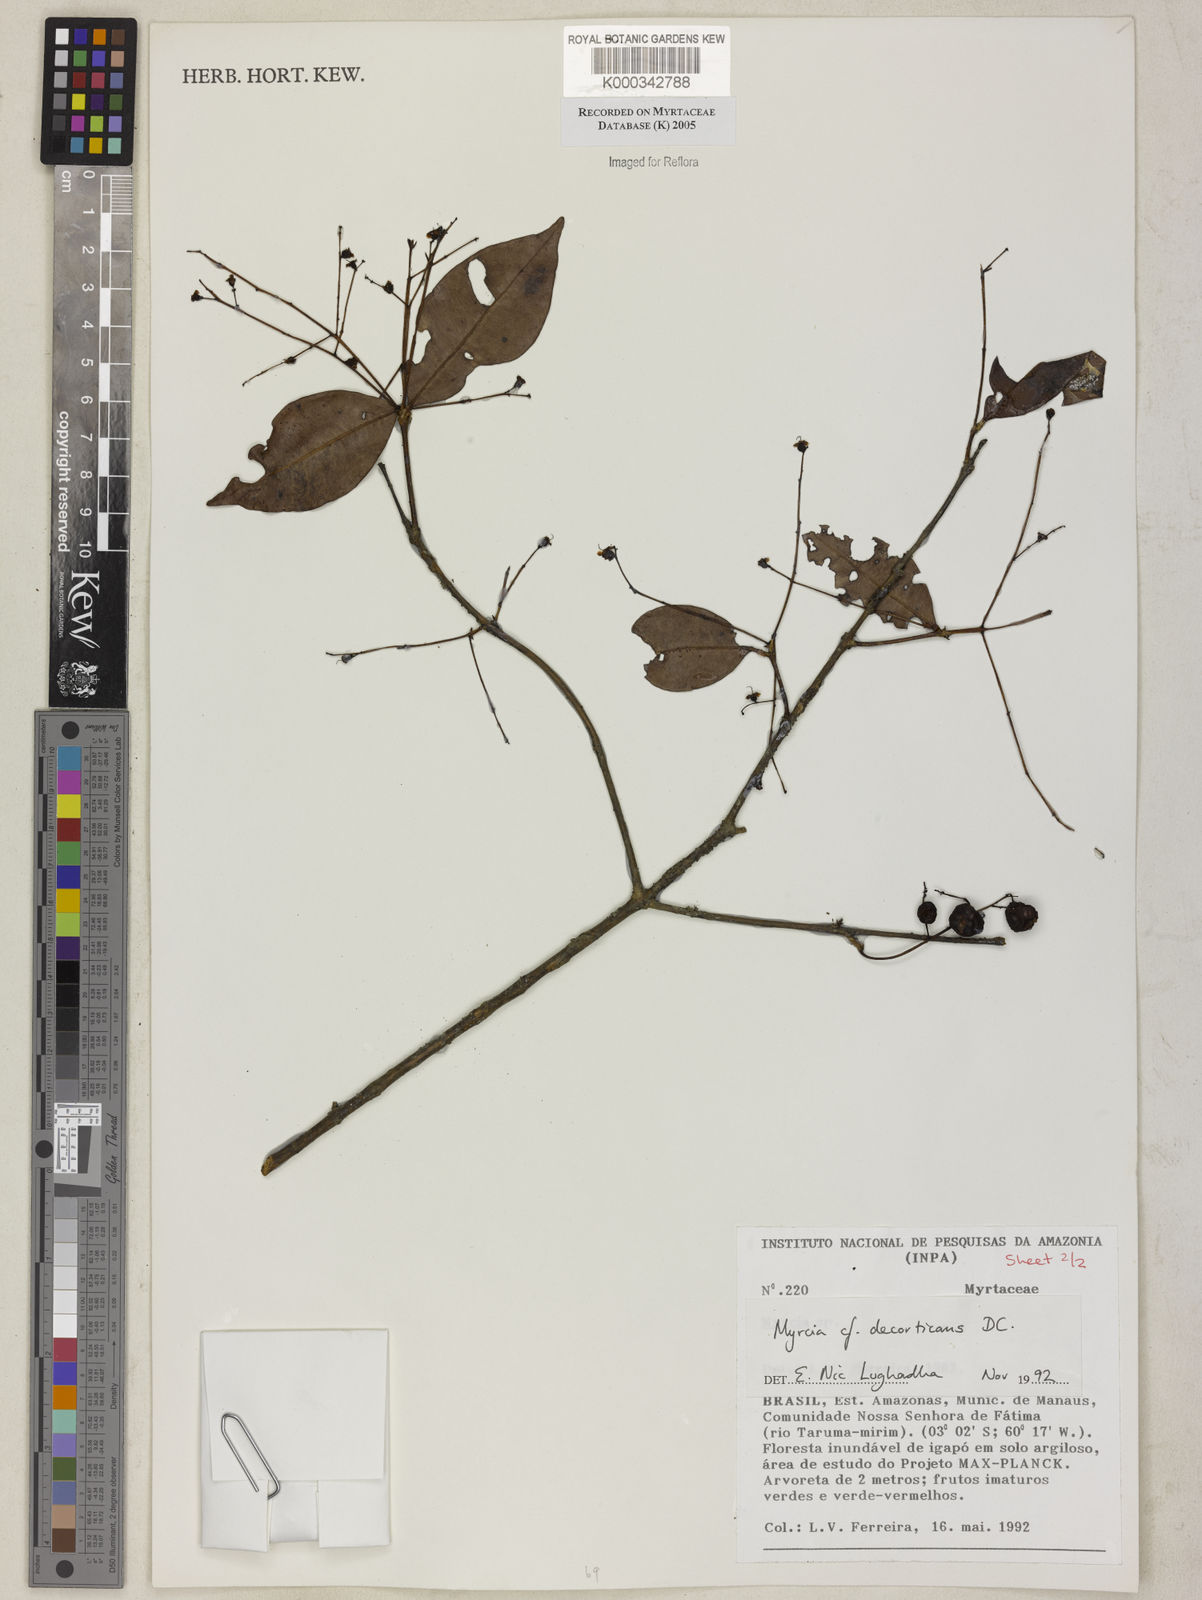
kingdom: Plantae
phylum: Tracheophyta
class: Magnoliopsida
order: Myrtales
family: Myrtaceae
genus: Myrcia
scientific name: Myrcia decorticans
